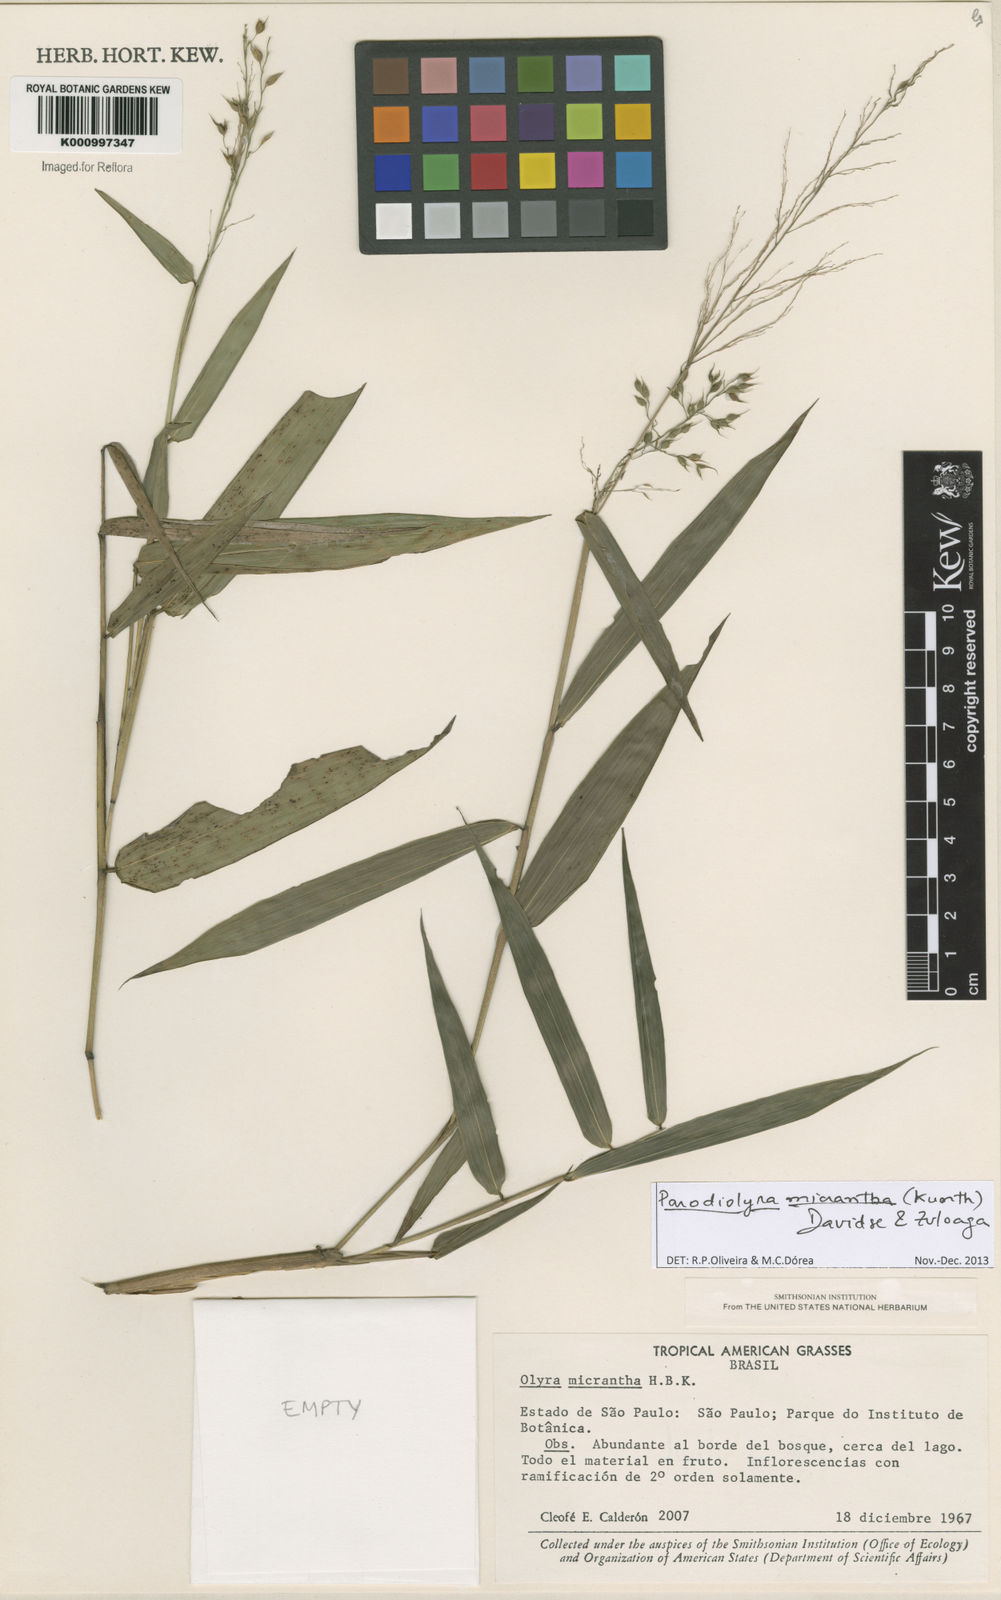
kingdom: Plantae
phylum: Tracheophyta
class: Liliopsida
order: Poales
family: Poaceae
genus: Taquara
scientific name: Taquara micrantha
